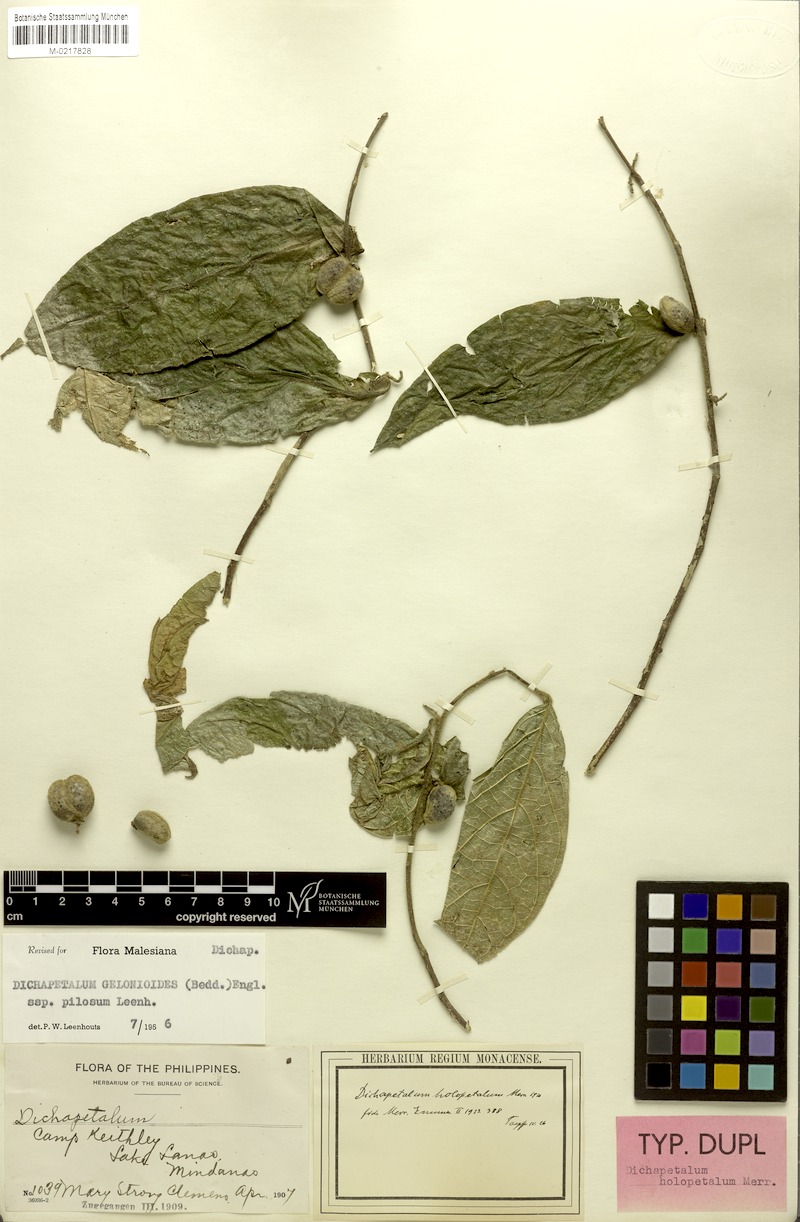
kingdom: Plantae
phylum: Tracheophyta
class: Magnoliopsida
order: Malpighiales
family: Dichapetalaceae
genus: Dichapetalum
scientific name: Dichapetalum gelonioides
